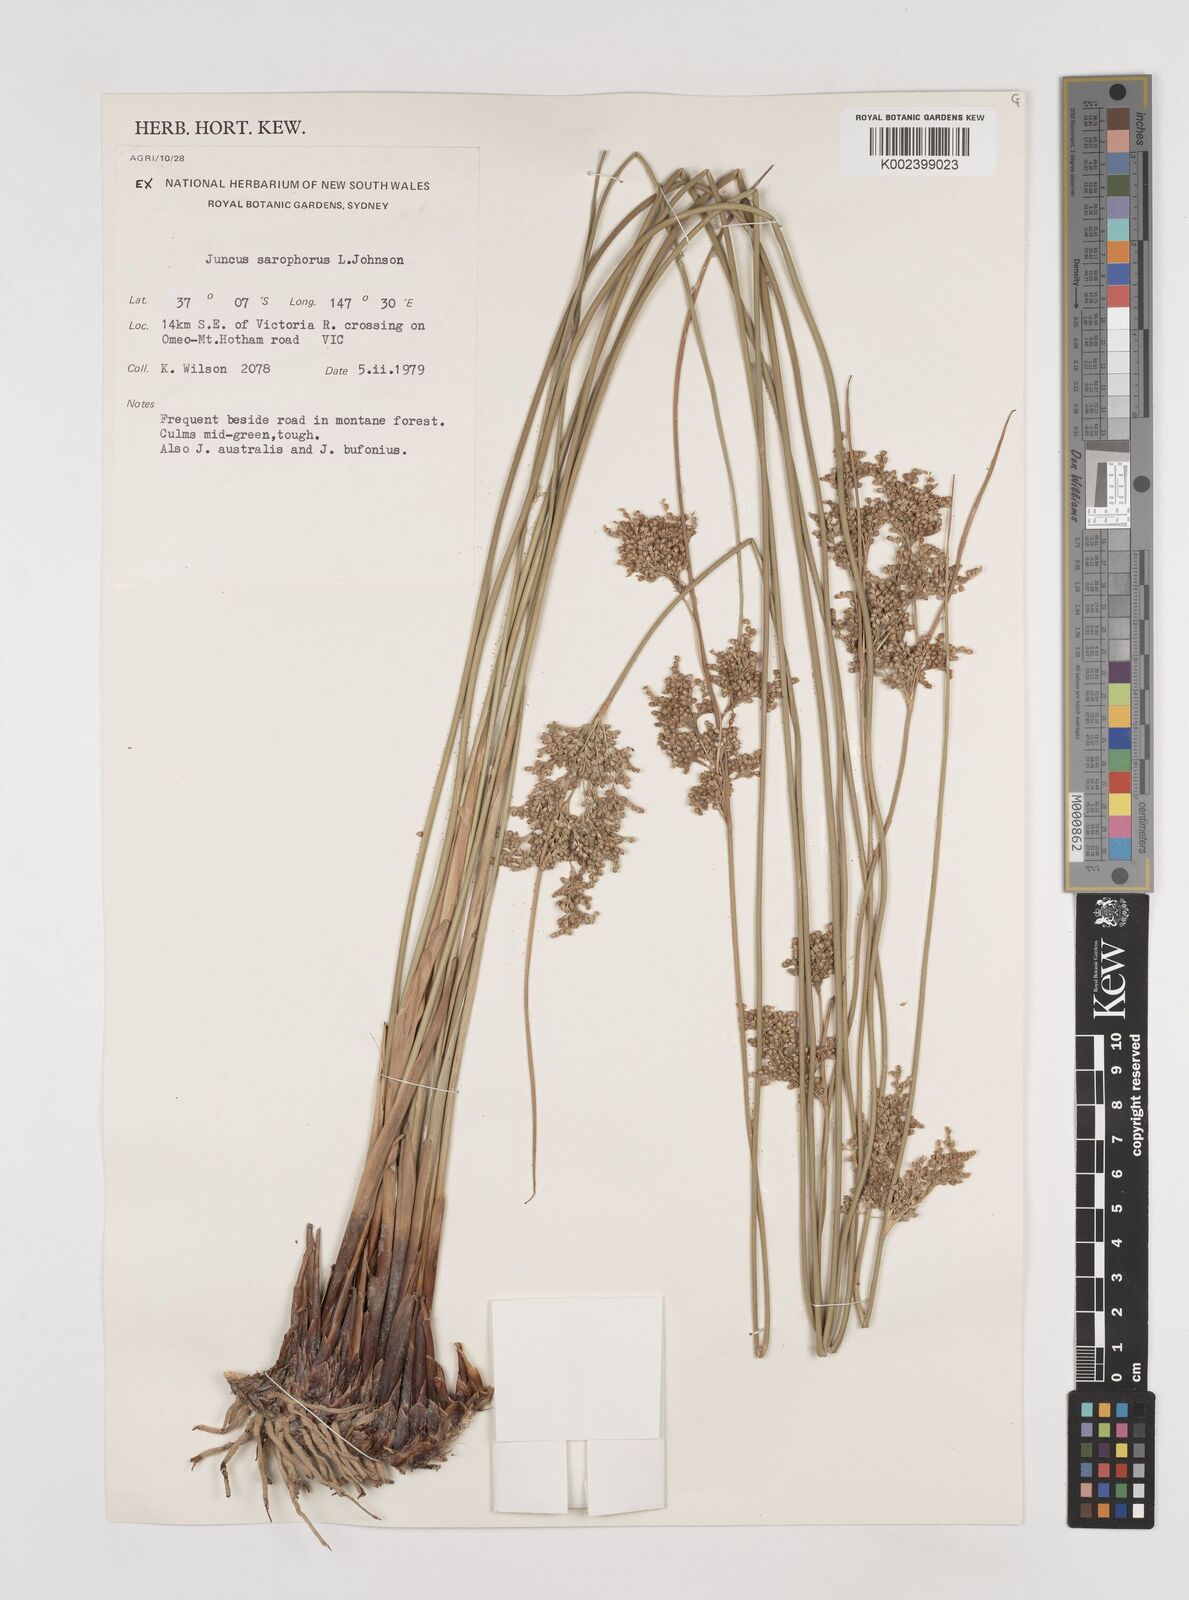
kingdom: Plantae
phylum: Tracheophyta
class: Liliopsida
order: Poales
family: Juncaceae
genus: Juncus
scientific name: Juncus sarophorus
